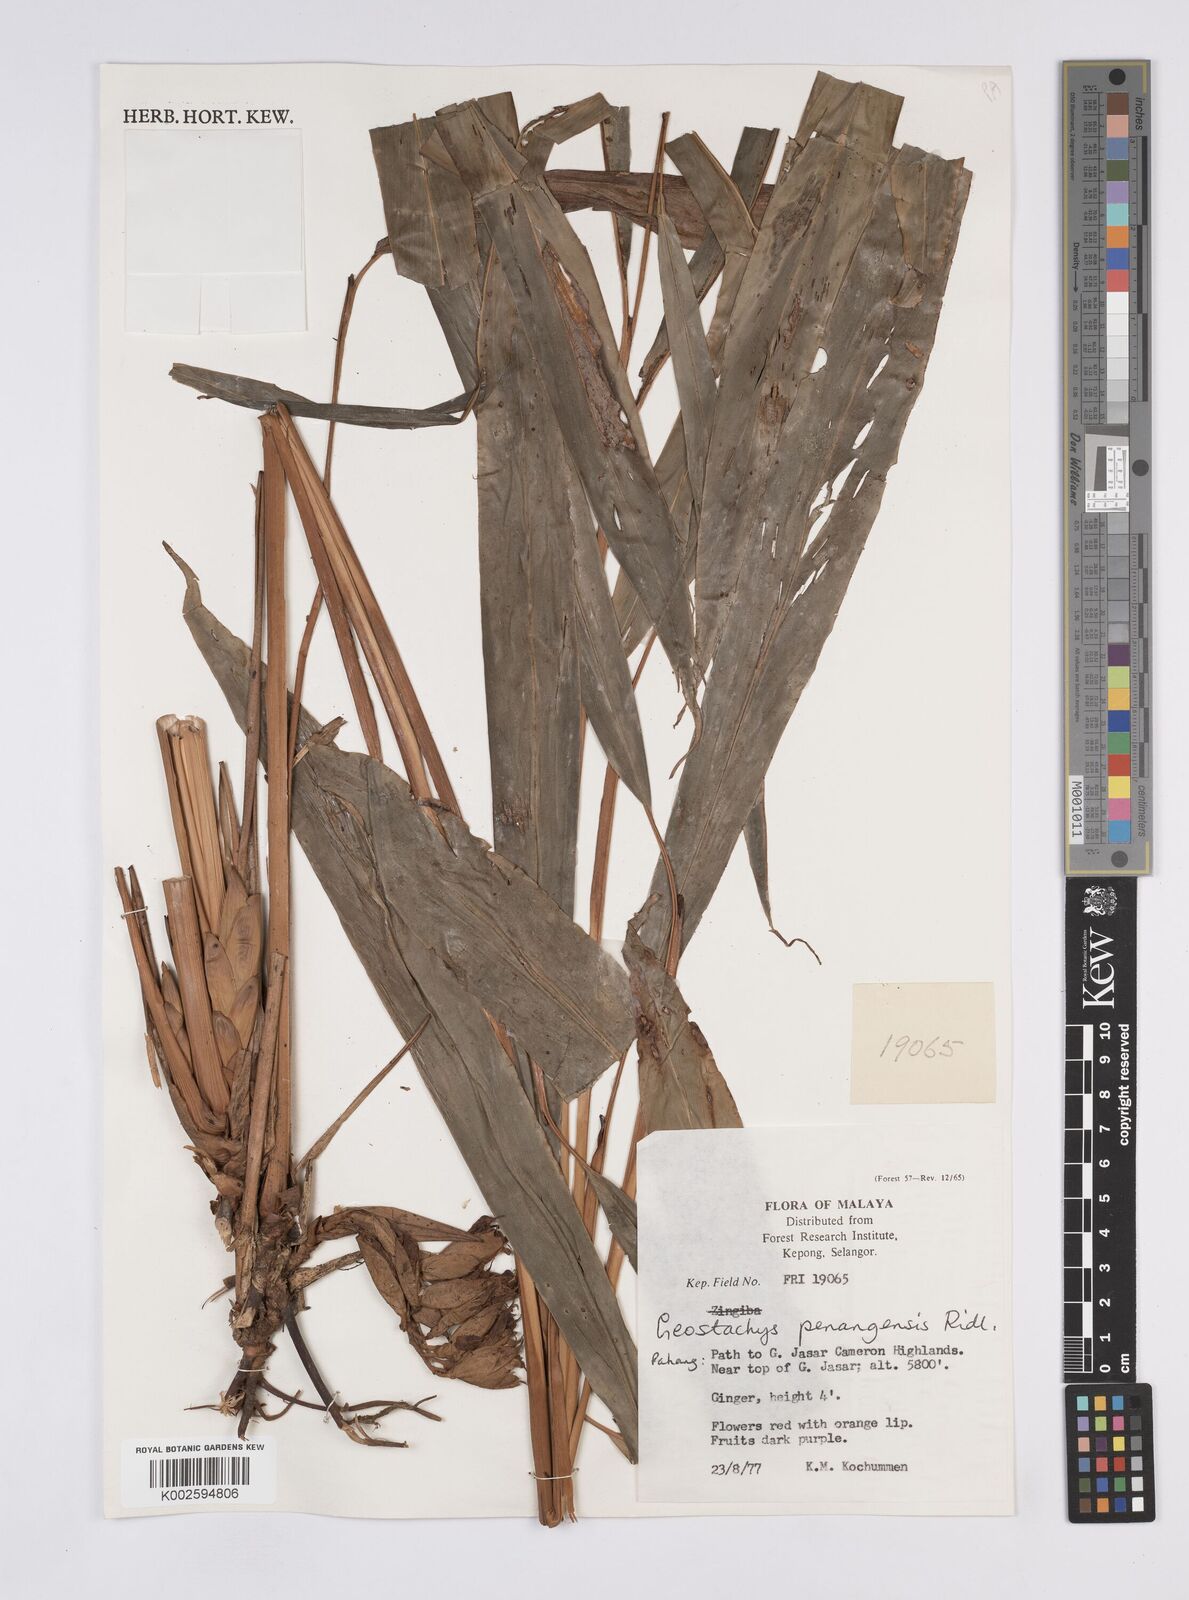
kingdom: Plantae
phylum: Tracheophyta
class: Liliopsida
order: Zingiberales
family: Zingiberaceae
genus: Geostachys
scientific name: Geostachys penangensis
